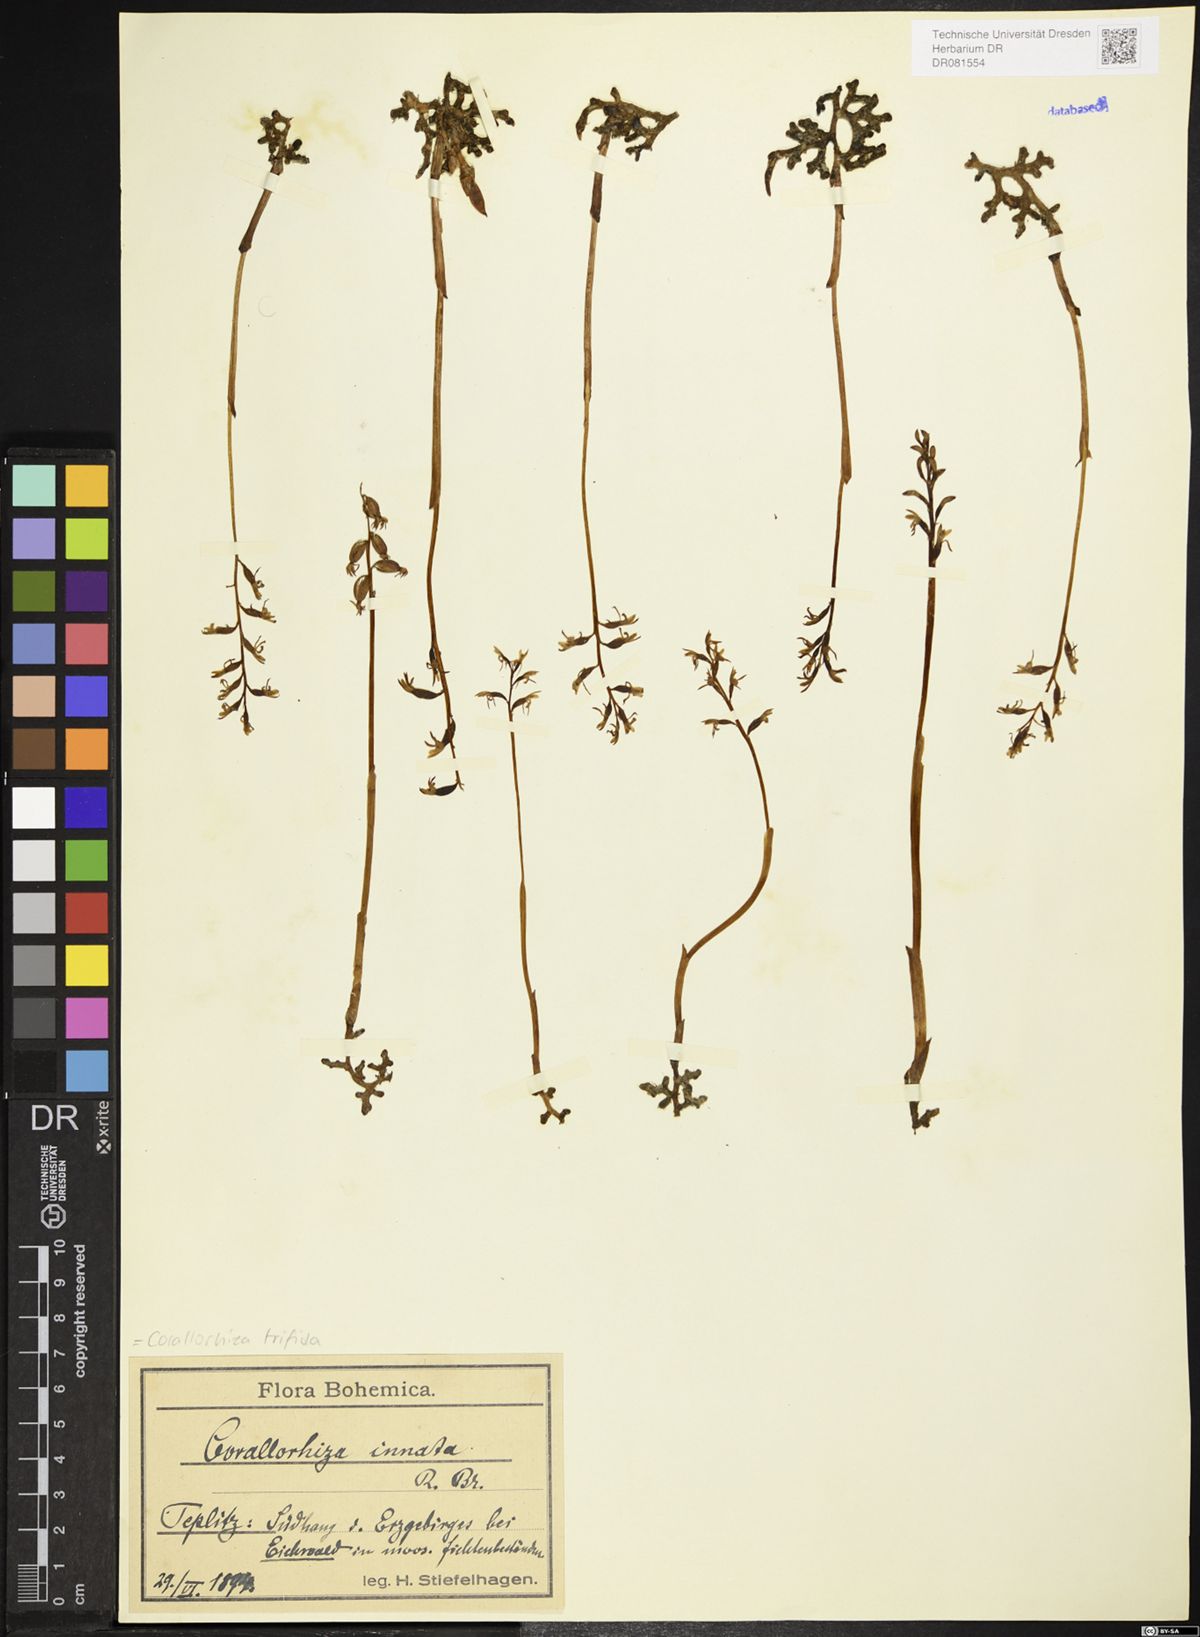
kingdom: Plantae
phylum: Tracheophyta
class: Liliopsida
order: Asparagales
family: Orchidaceae
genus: Corallorhiza
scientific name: Corallorhiza trifida
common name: Yellow coralroot
